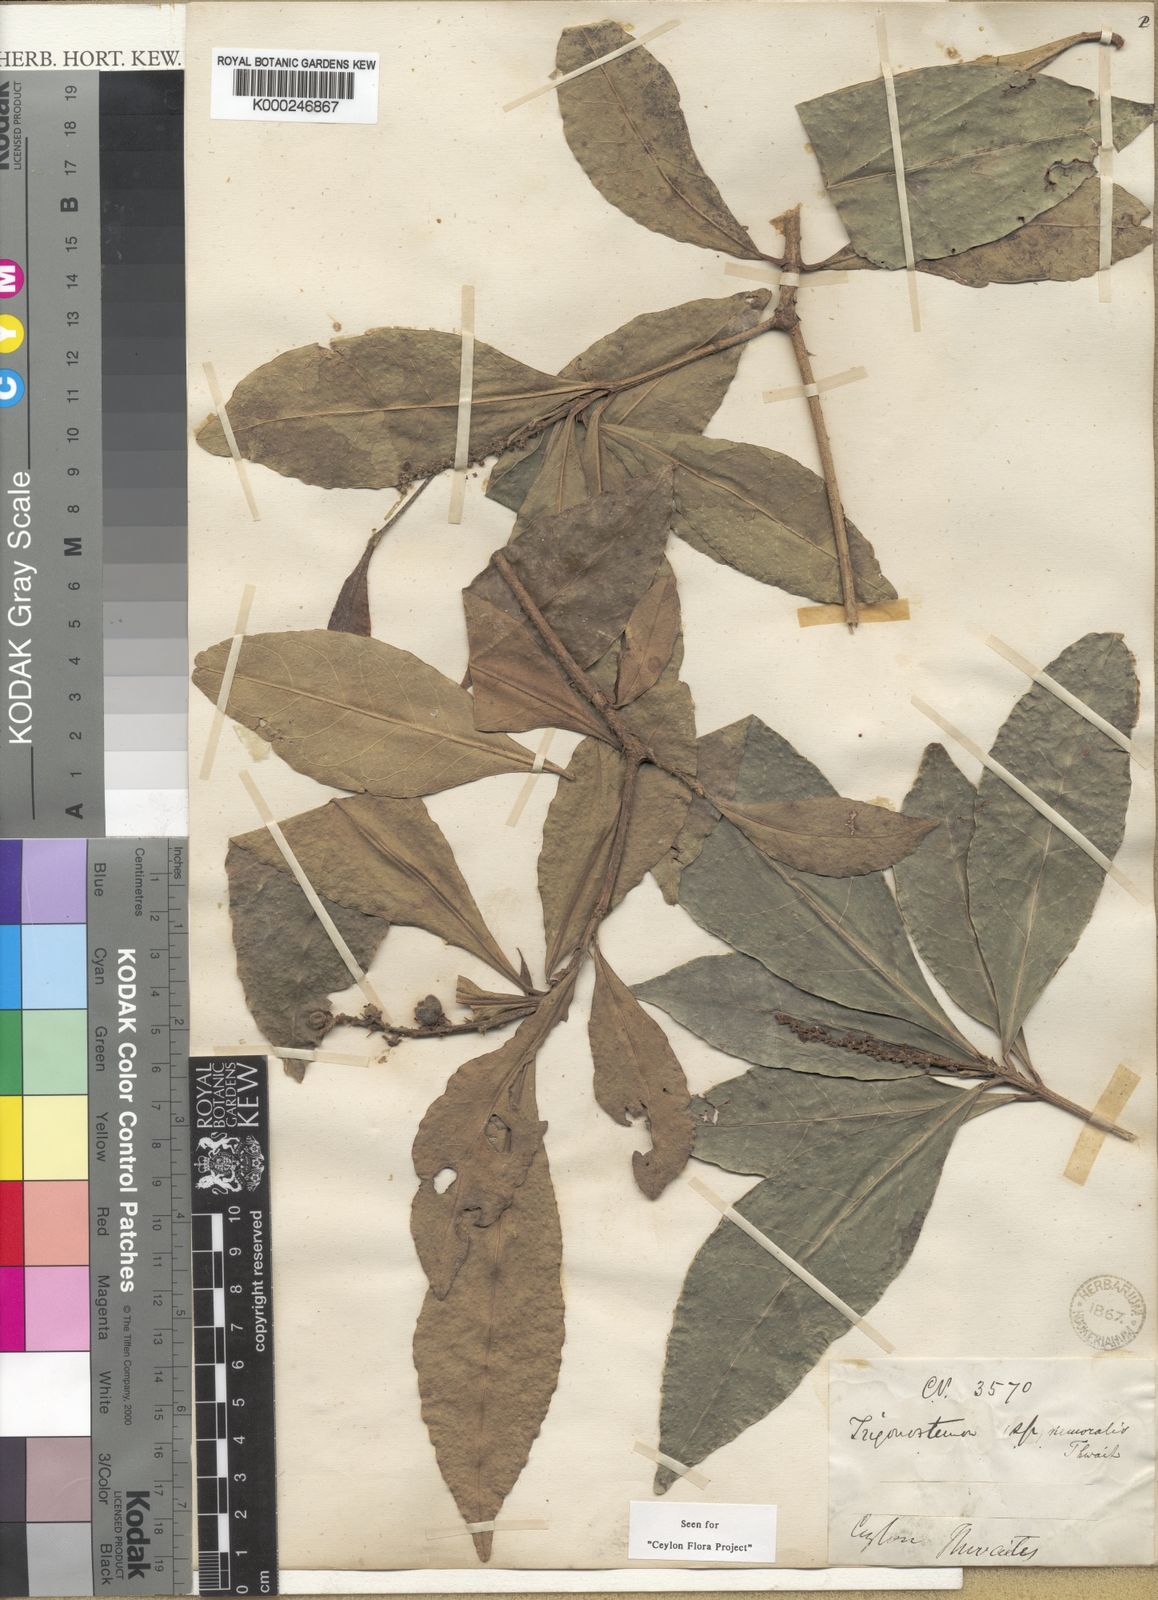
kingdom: Plantae
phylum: Tracheophyta
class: Magnoliopsida
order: Malpighiales
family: Euphorbiaceae
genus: Trigonostemon
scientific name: Trigonostemon nemoralis
